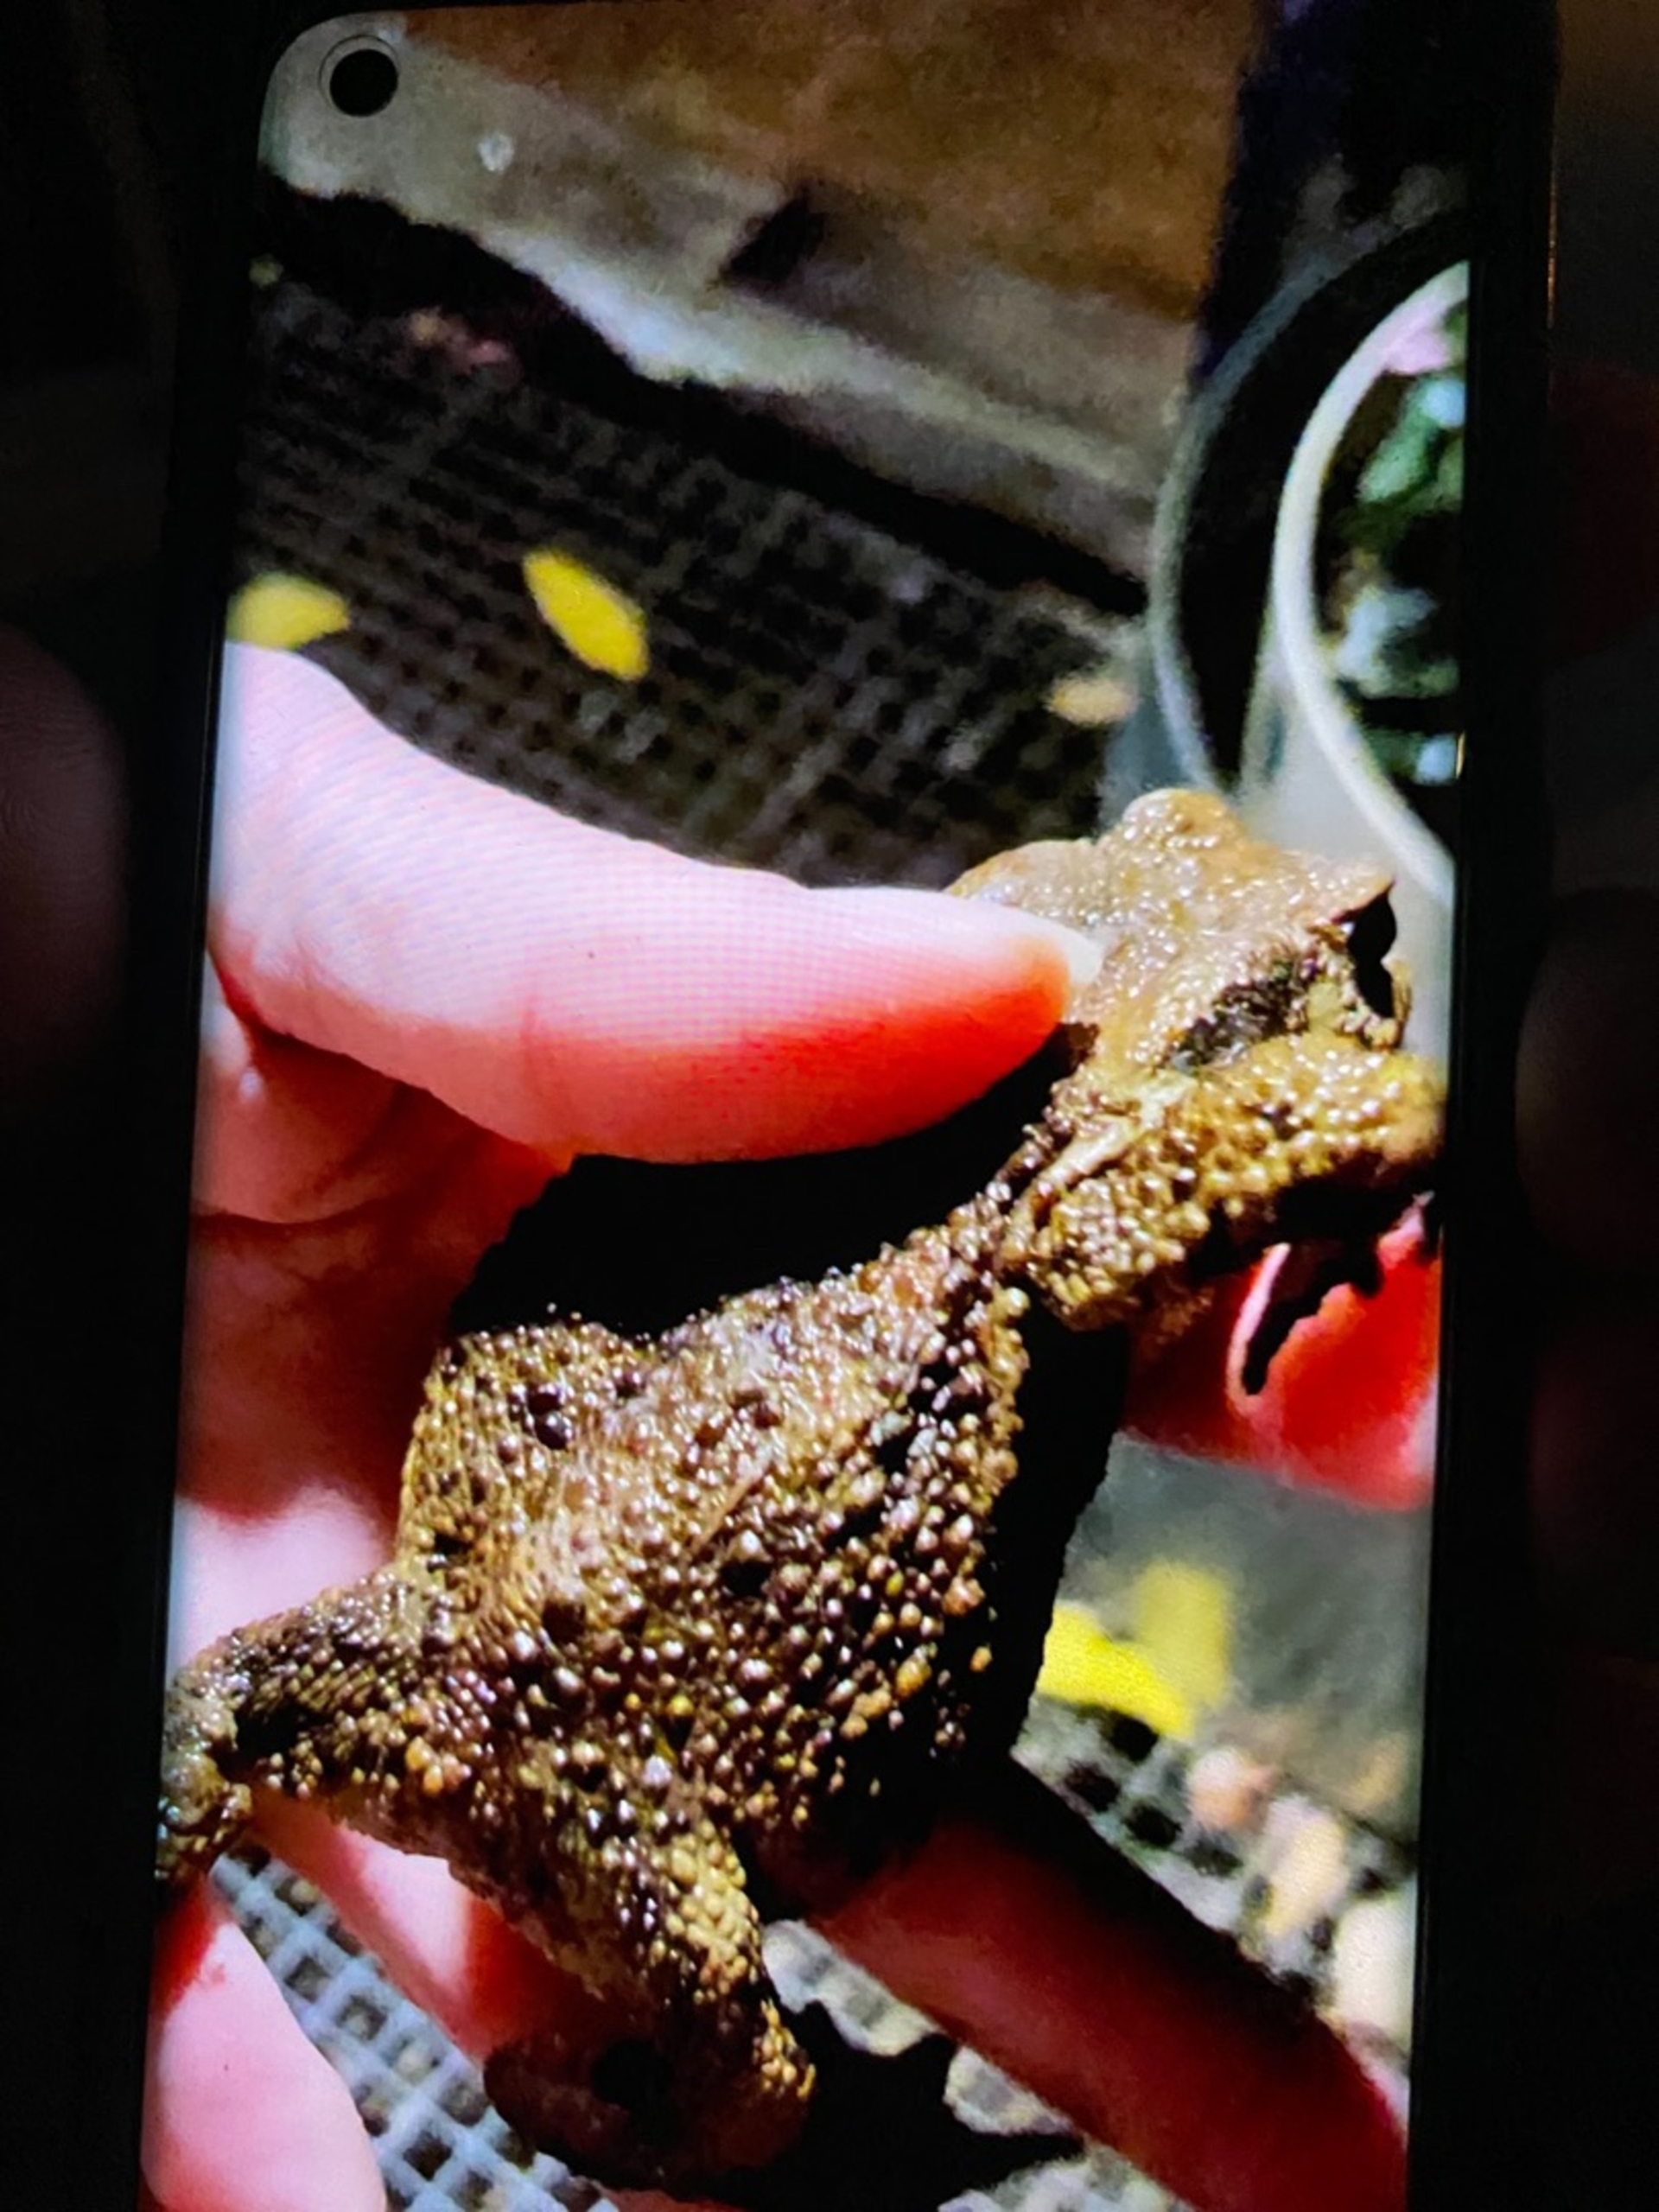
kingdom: Animalia
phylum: Chordata
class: Amphibia
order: Anura
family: Bufonidae
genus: Bufo
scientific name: Bufo bufo
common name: Skrubtudse
